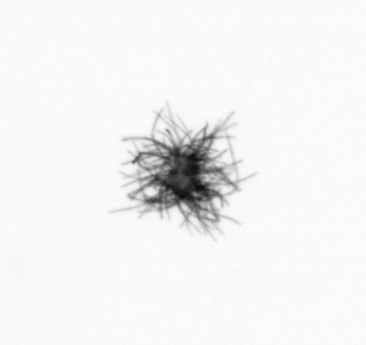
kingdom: Bacteria
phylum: Cyanobacteria
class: Cyanobacteriia
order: Cyanobacteriales
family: Microcoleaceae
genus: Trichodesmium
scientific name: Trichodesmium
